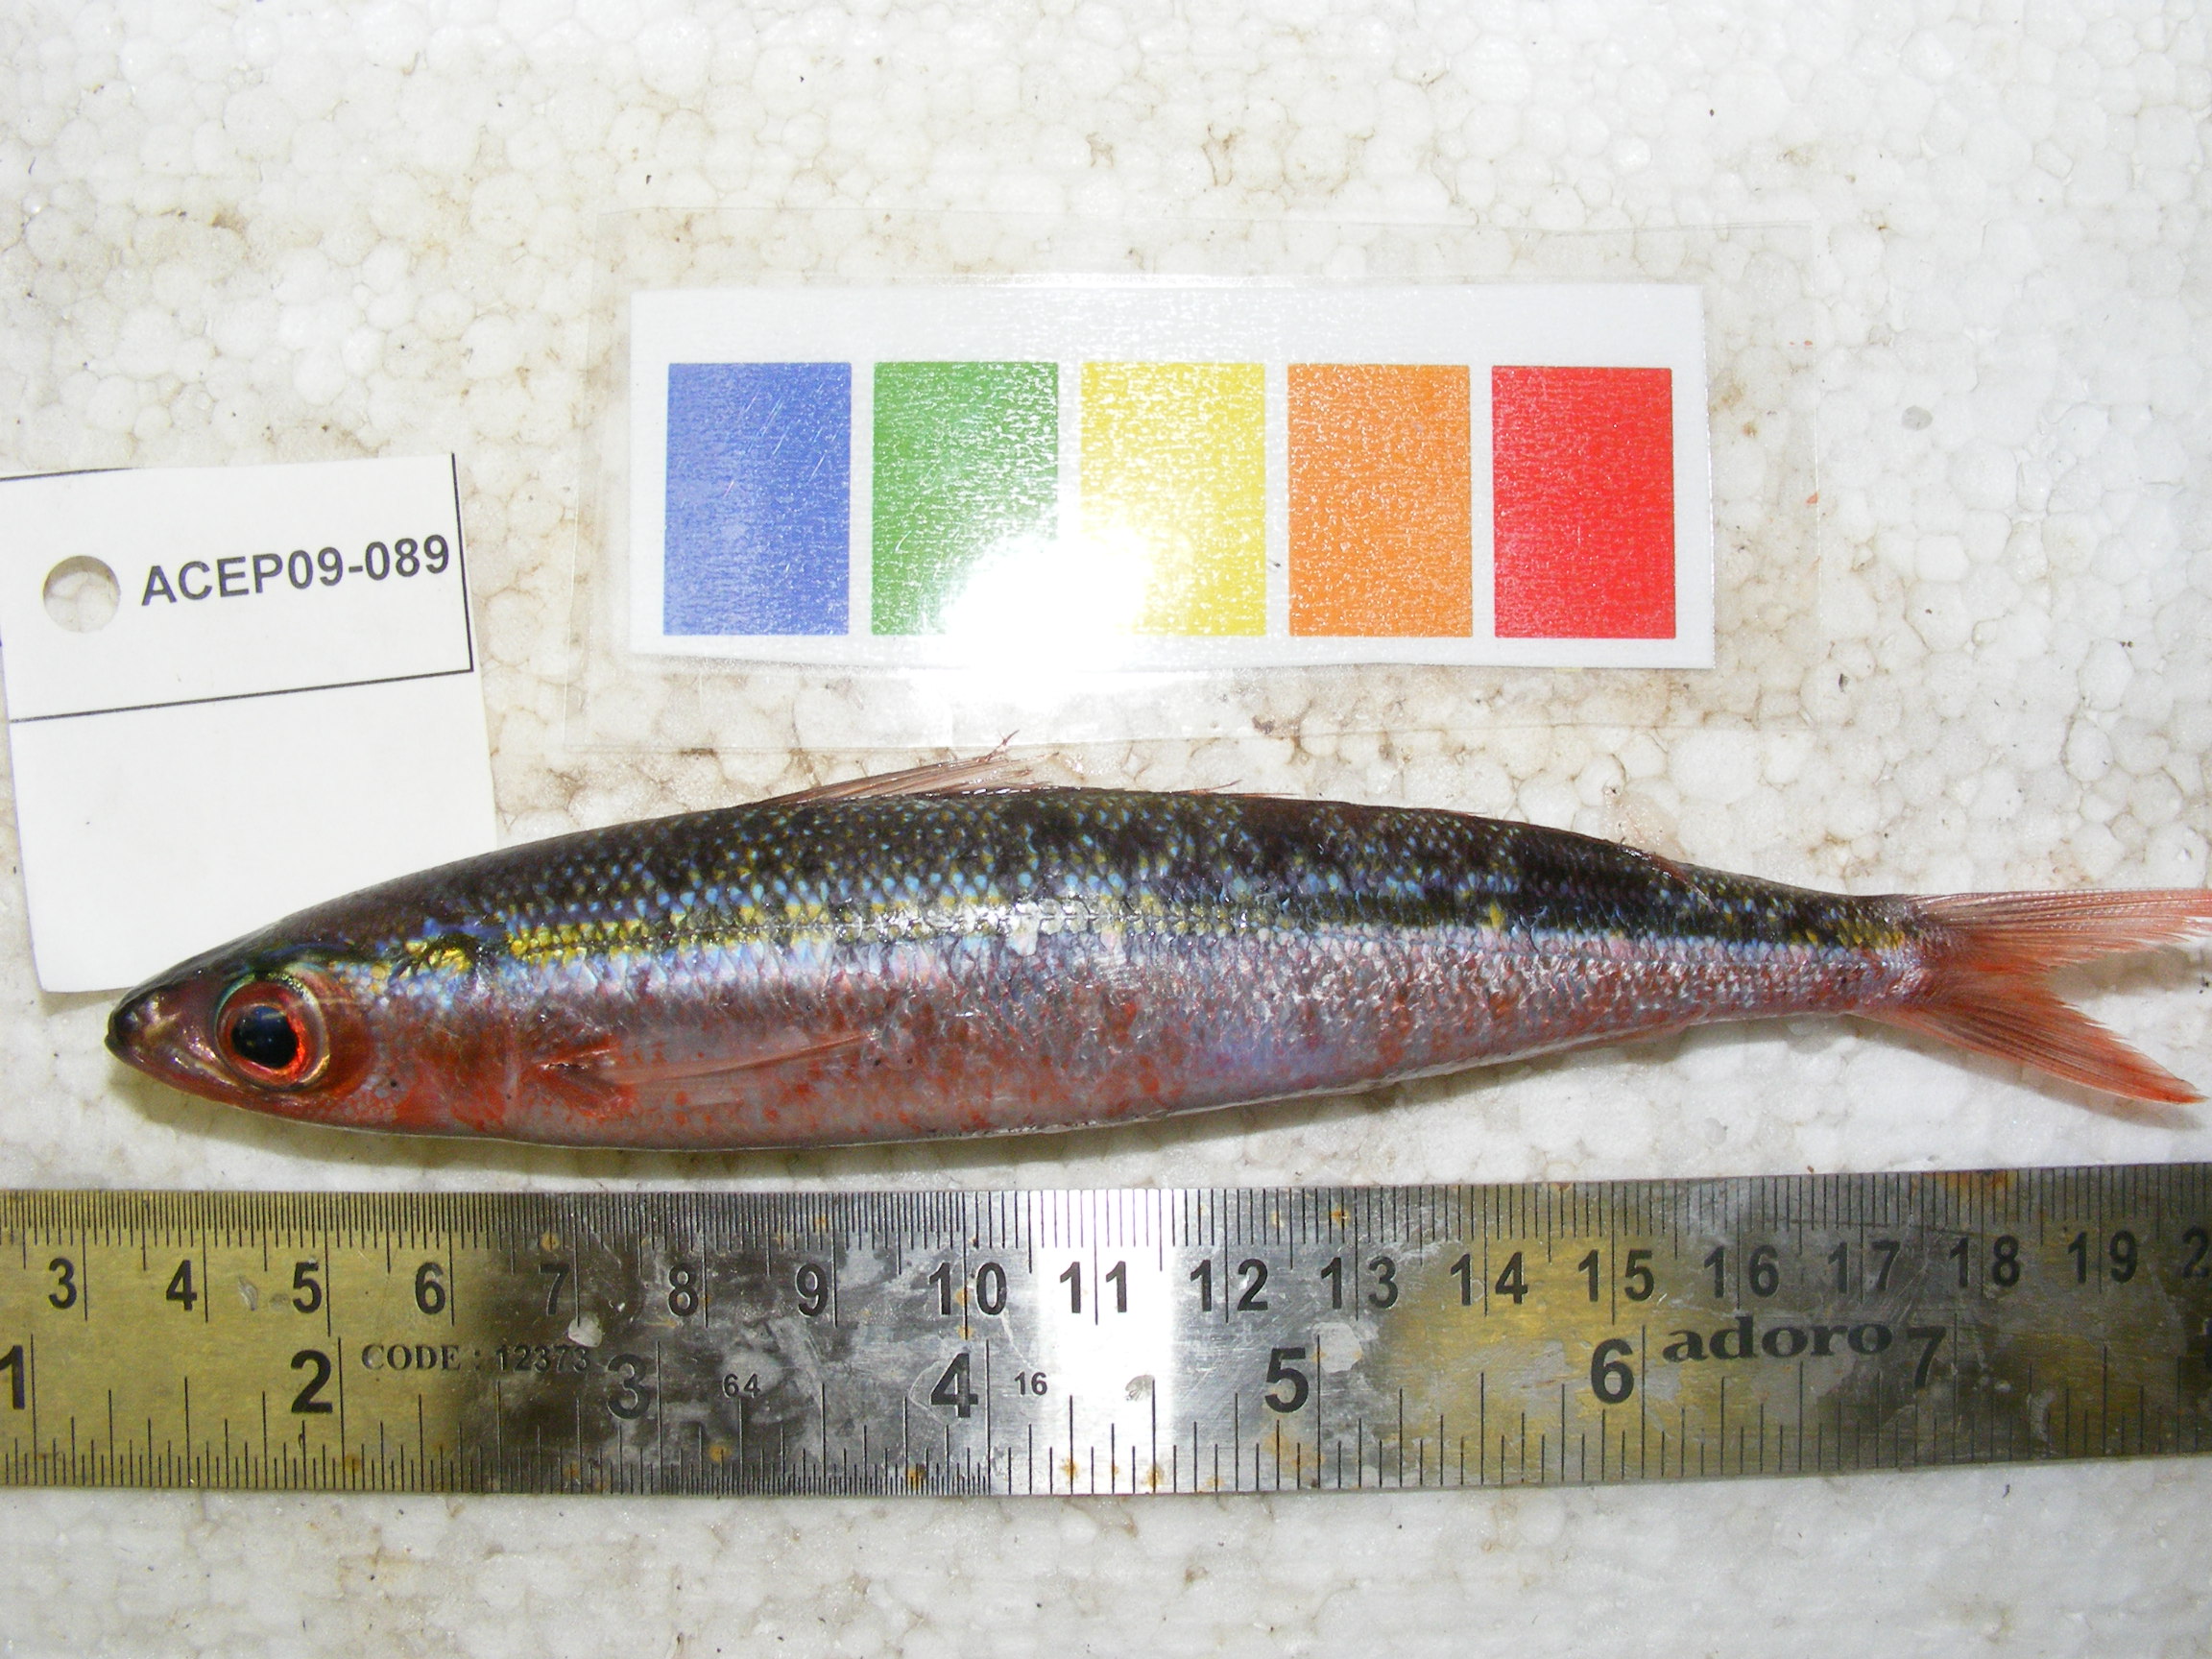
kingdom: Animalia
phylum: Chordata
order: Perciformes
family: Caesionidae
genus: Pterocaesio
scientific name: Pterocaesio
